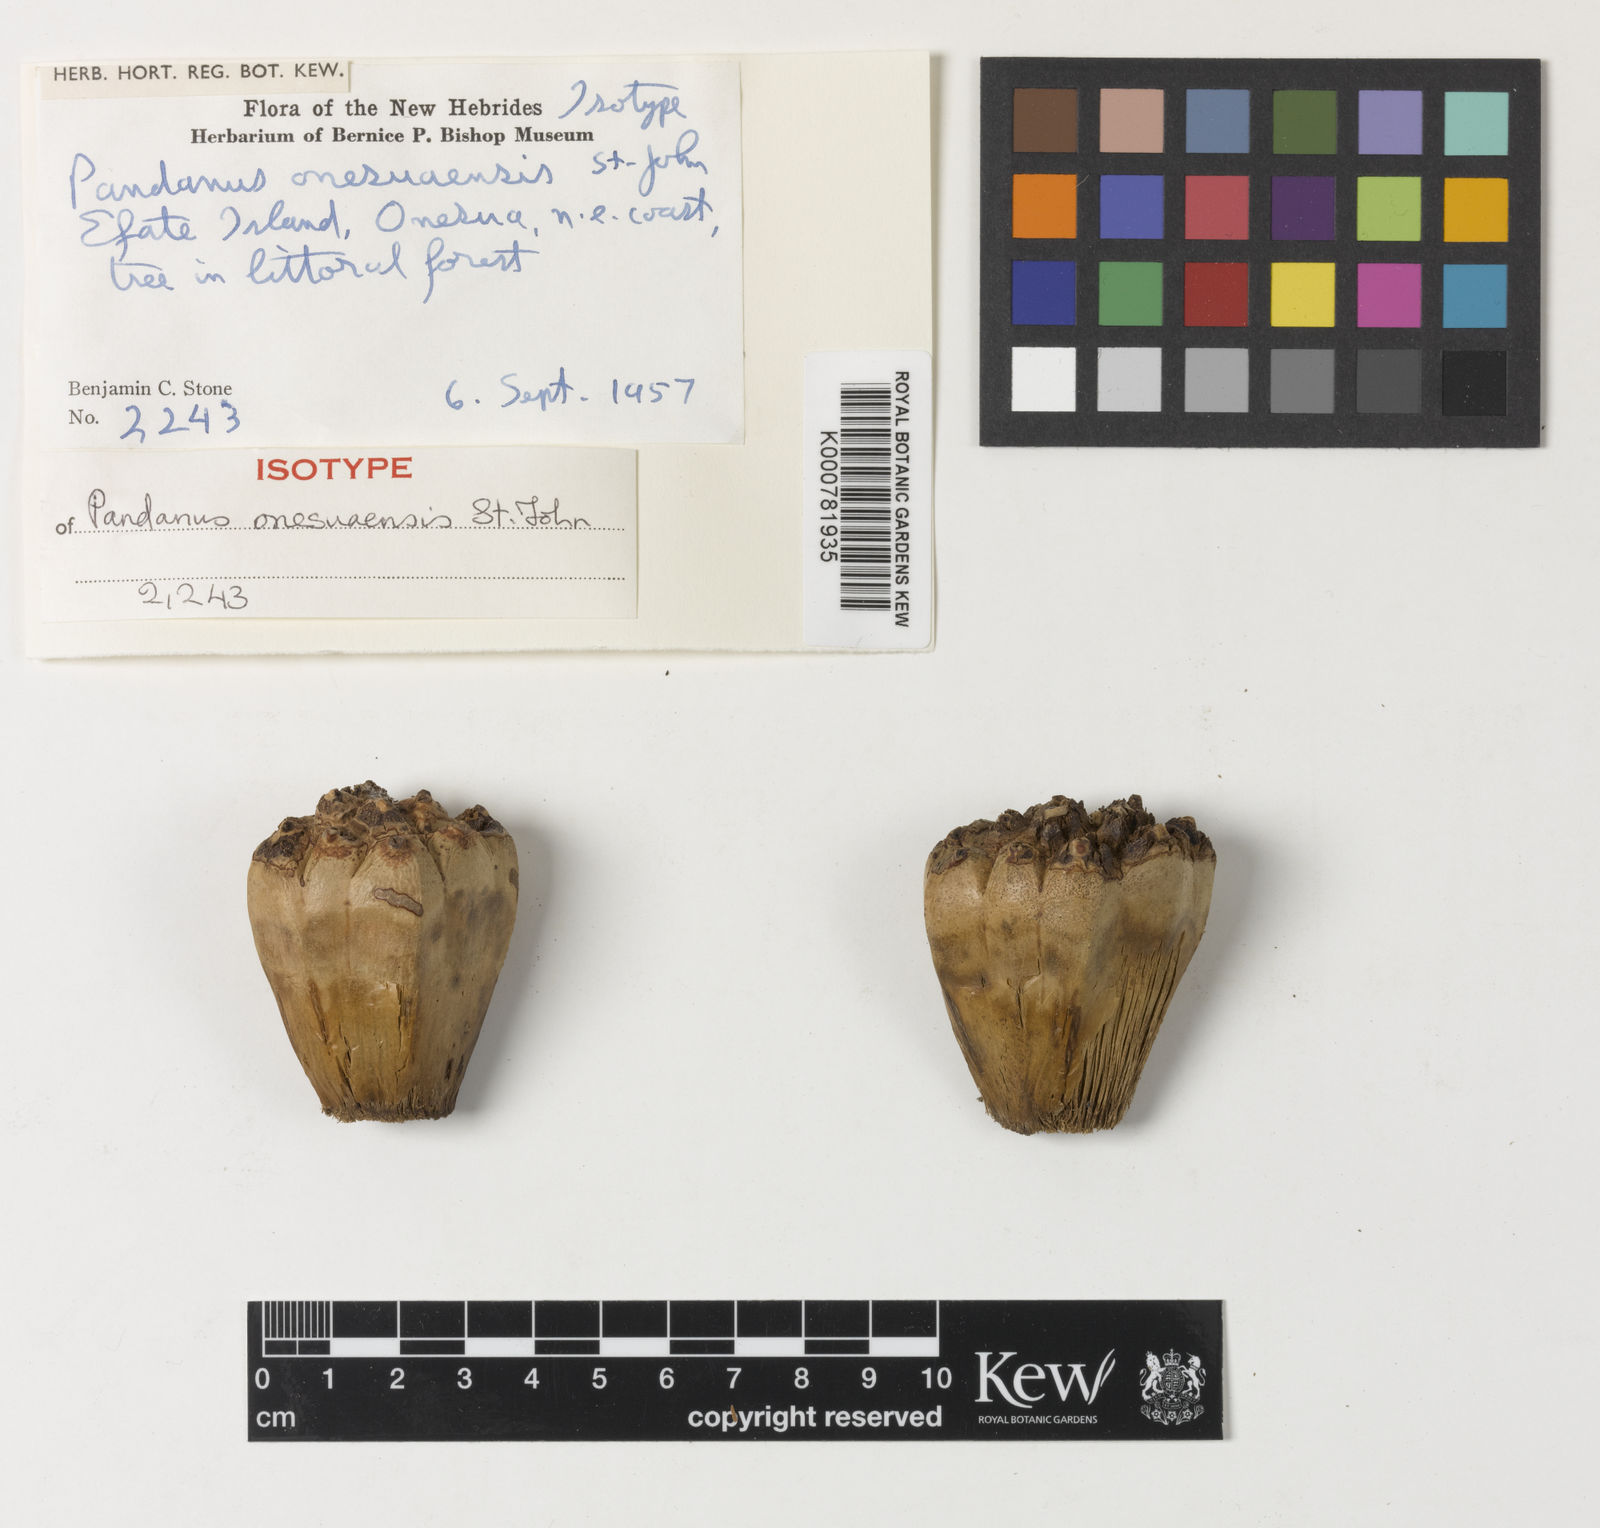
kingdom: Plantae
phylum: Tracheophyta
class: Liliopsida
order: Pandanales
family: Pandanaceae
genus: Pandanus
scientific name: Pandanus onesuaensis
